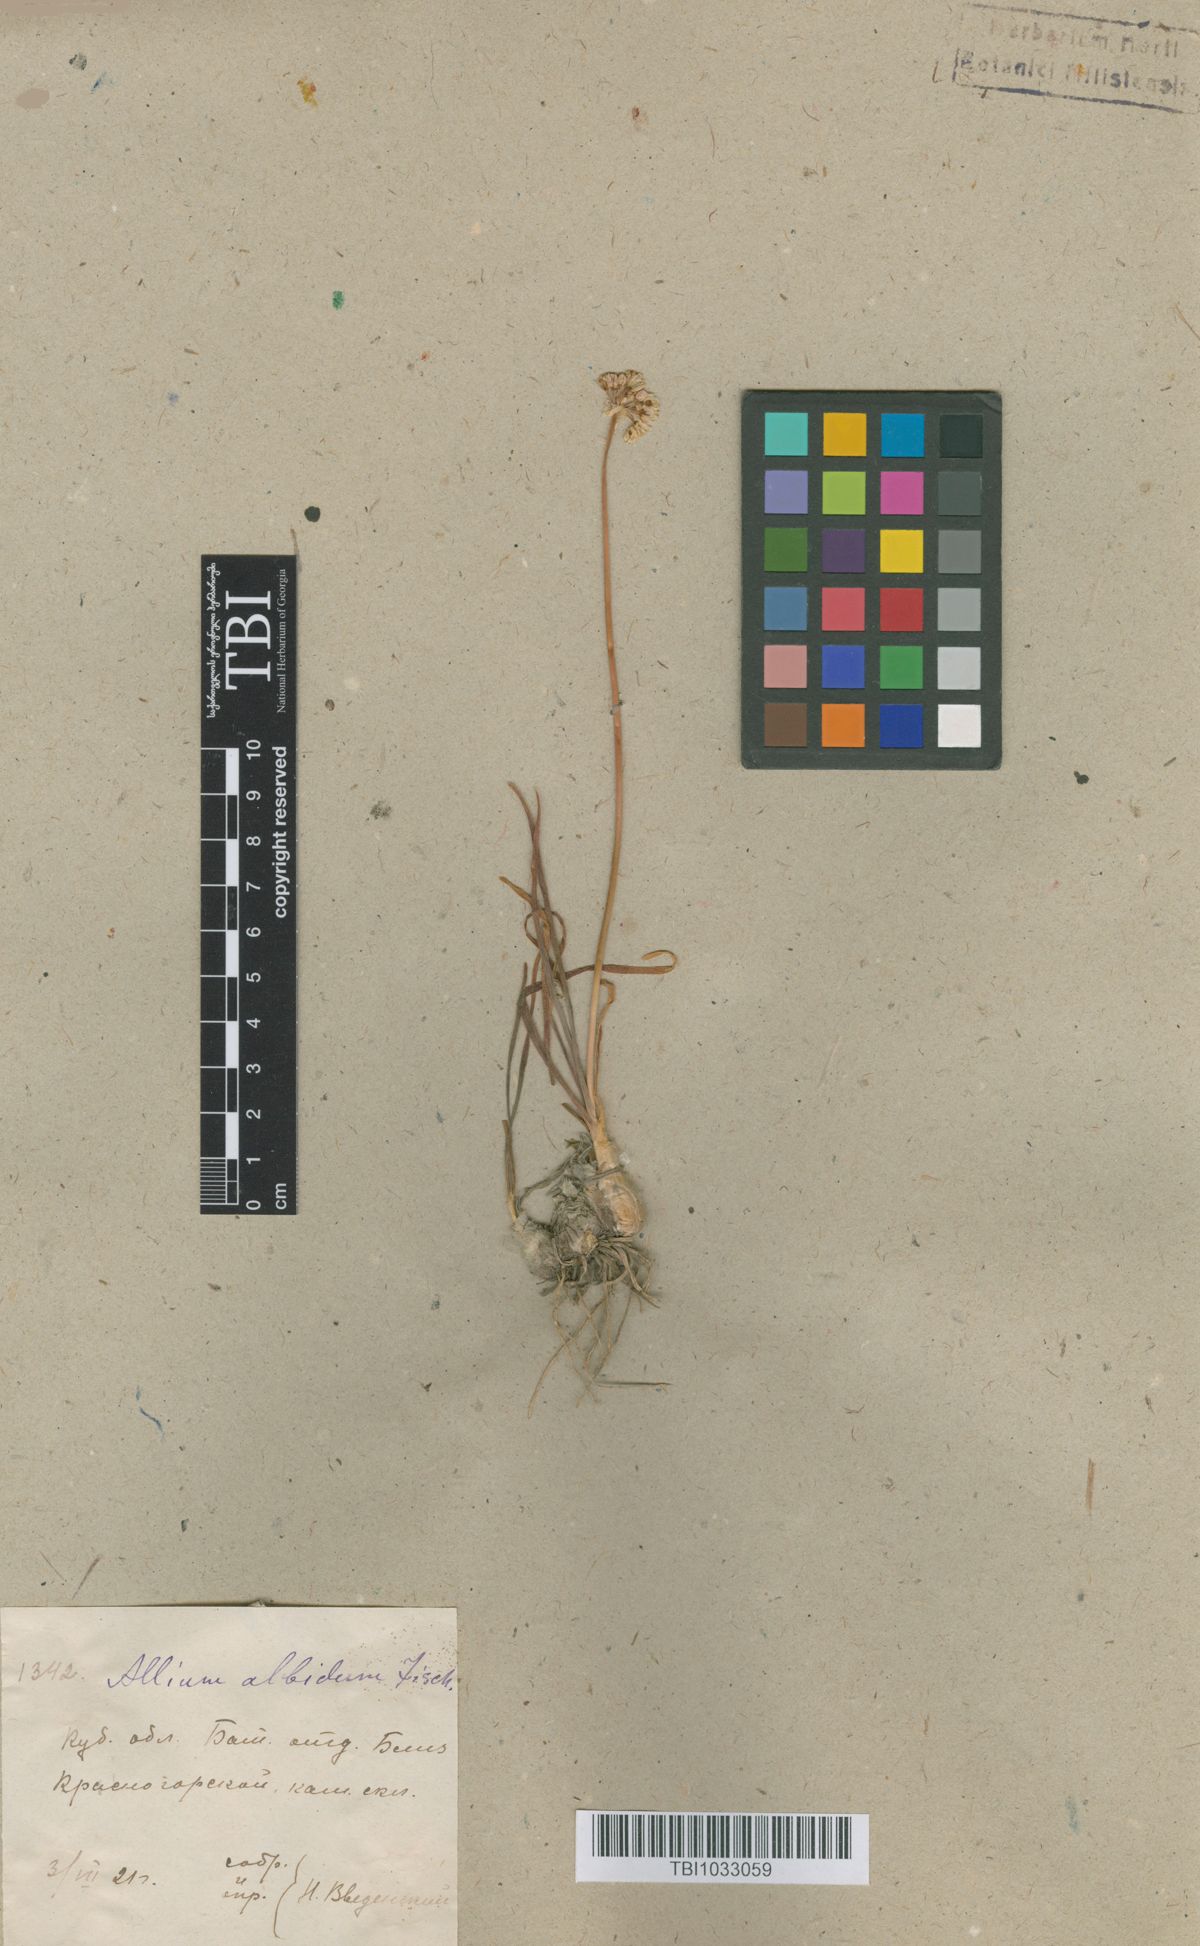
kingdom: Plantae
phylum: Tracheophyta
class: Liliopsida
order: Asparagales
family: Amaryllidaceae
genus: Allium
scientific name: Allium denudatum
